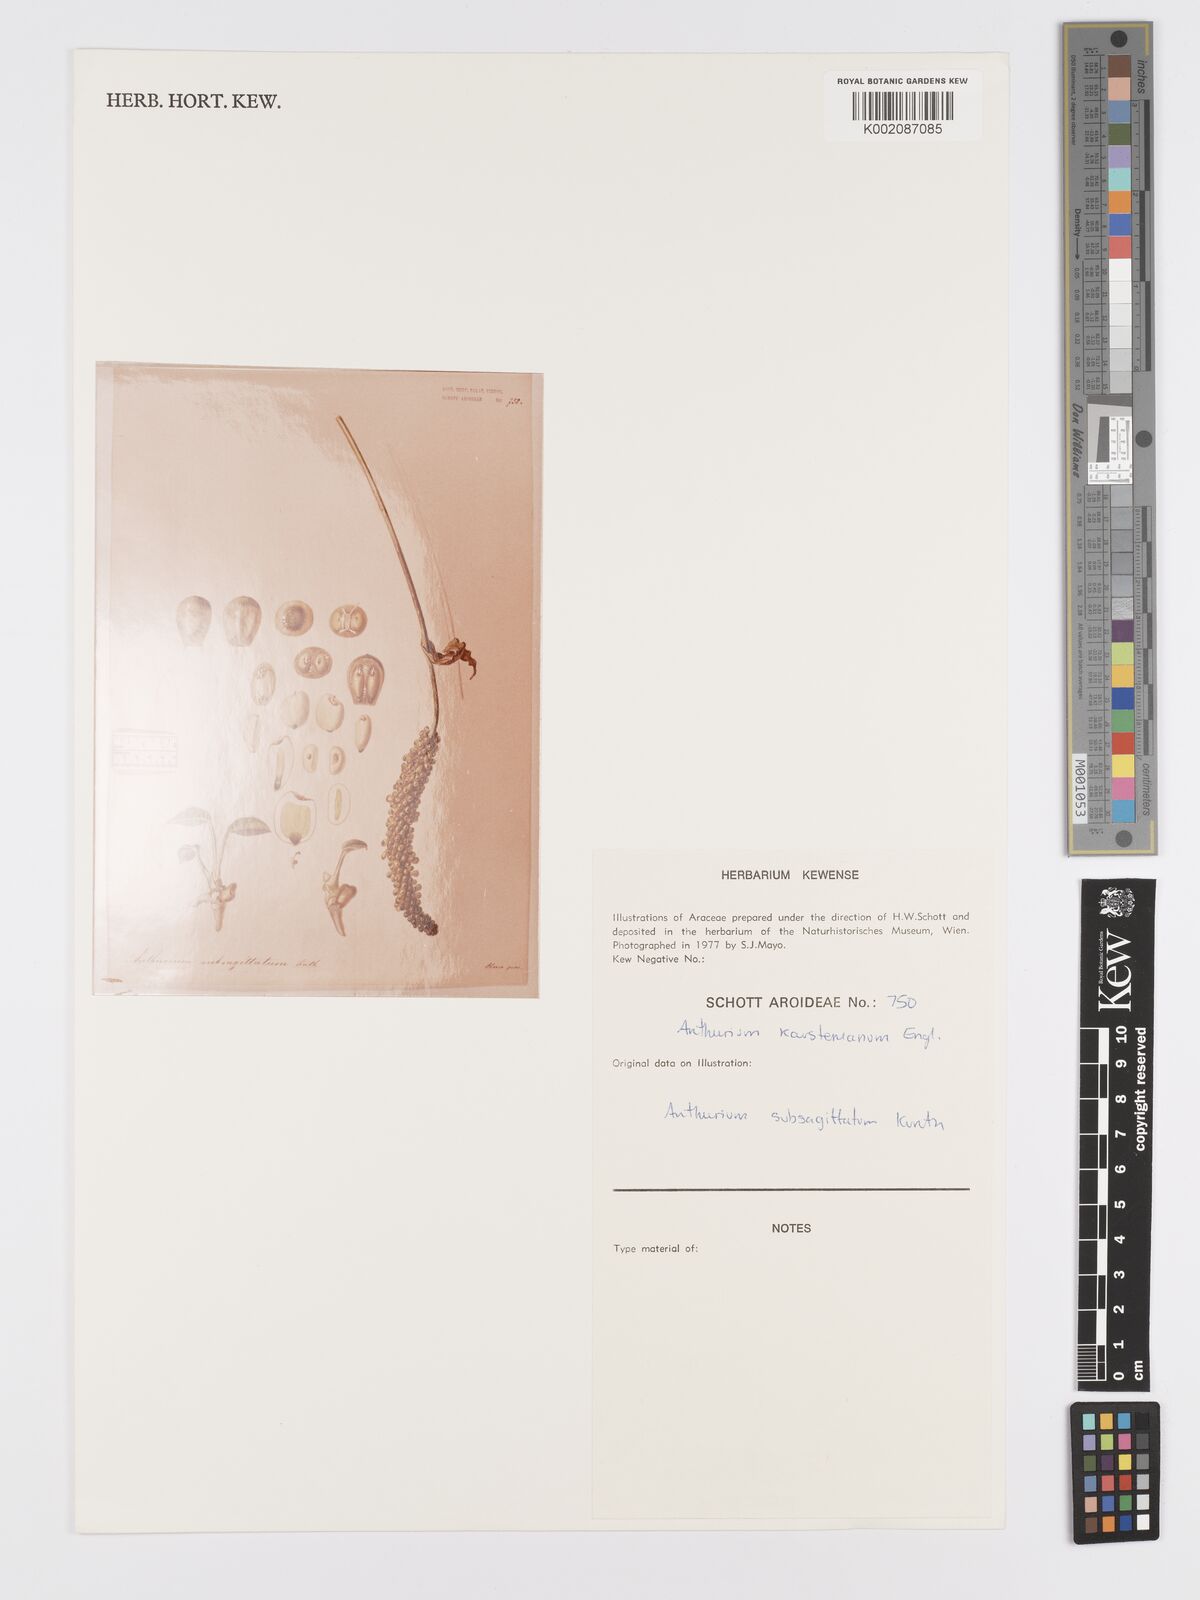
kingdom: Plantae
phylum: Tracheophyta
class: Liliopsida
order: Alismatales
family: Araceae
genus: Anthurium
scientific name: Anthurium subsagittatum
